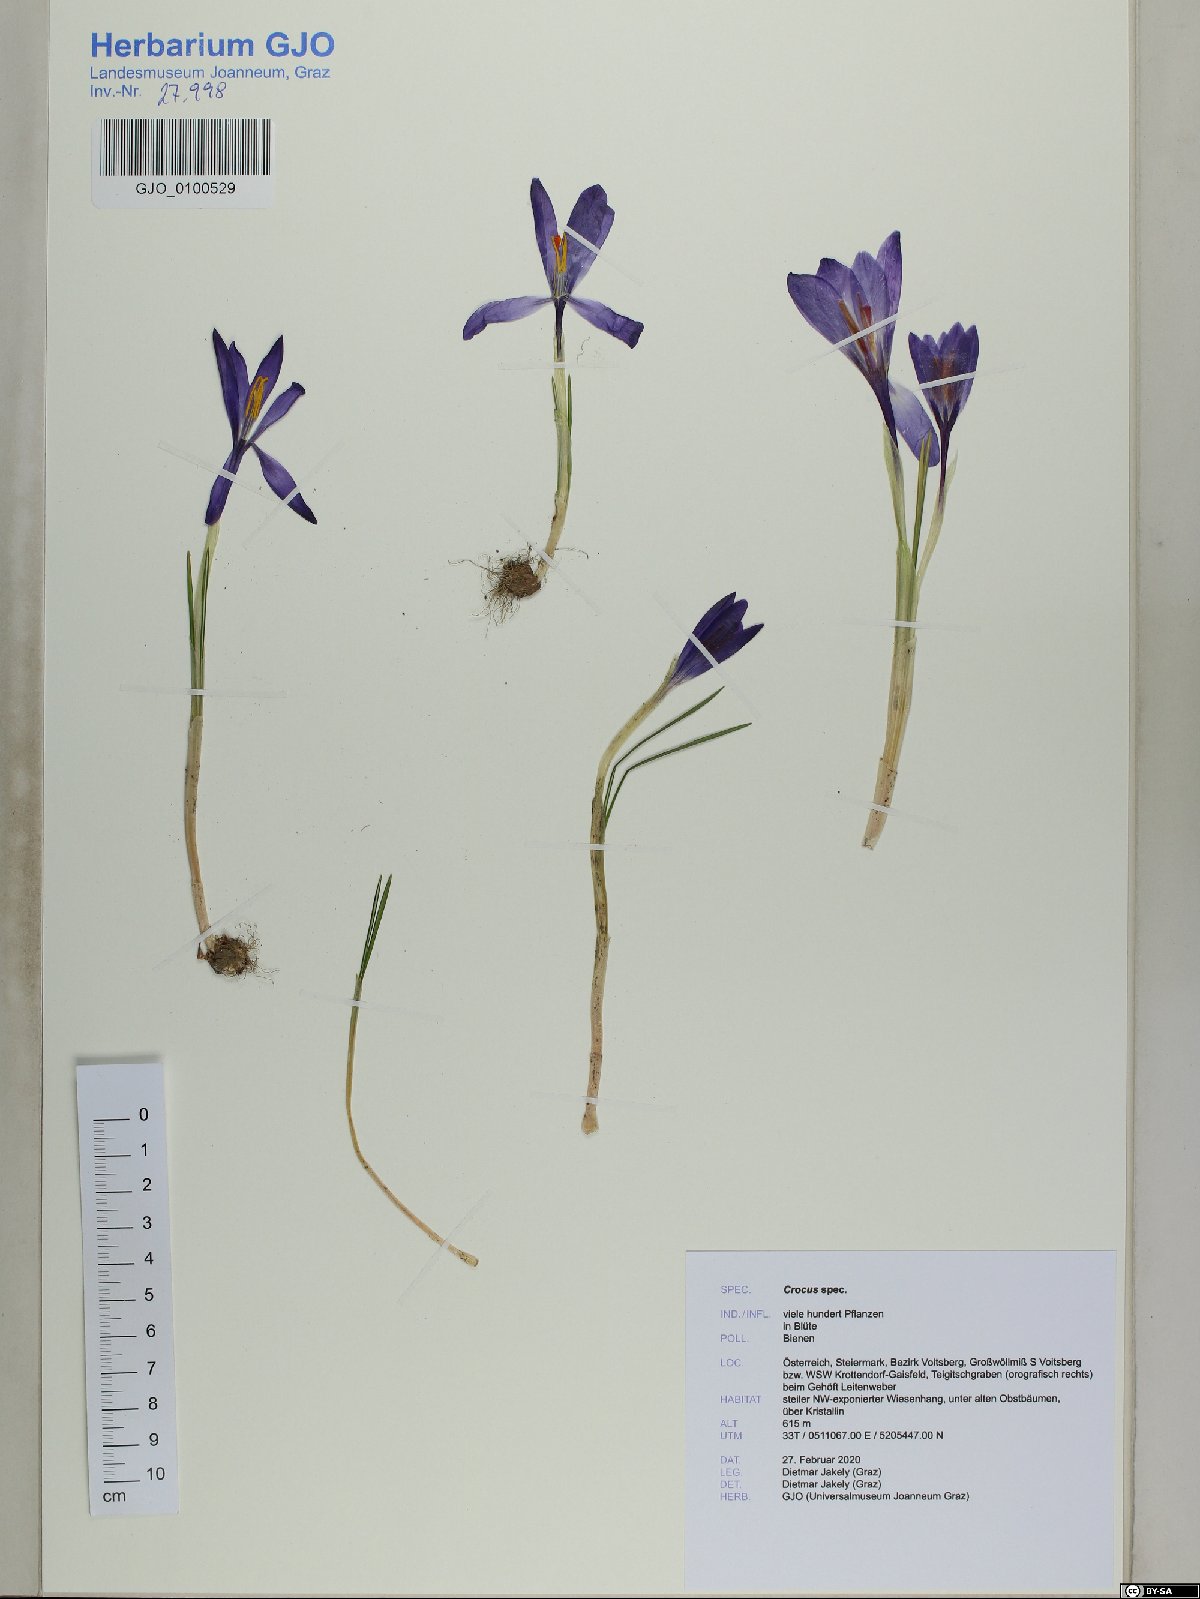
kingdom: Plantae
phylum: Tracheophyta
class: Liliopsida
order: Asparagales
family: Iridaceae
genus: Crocus
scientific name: Crocus
